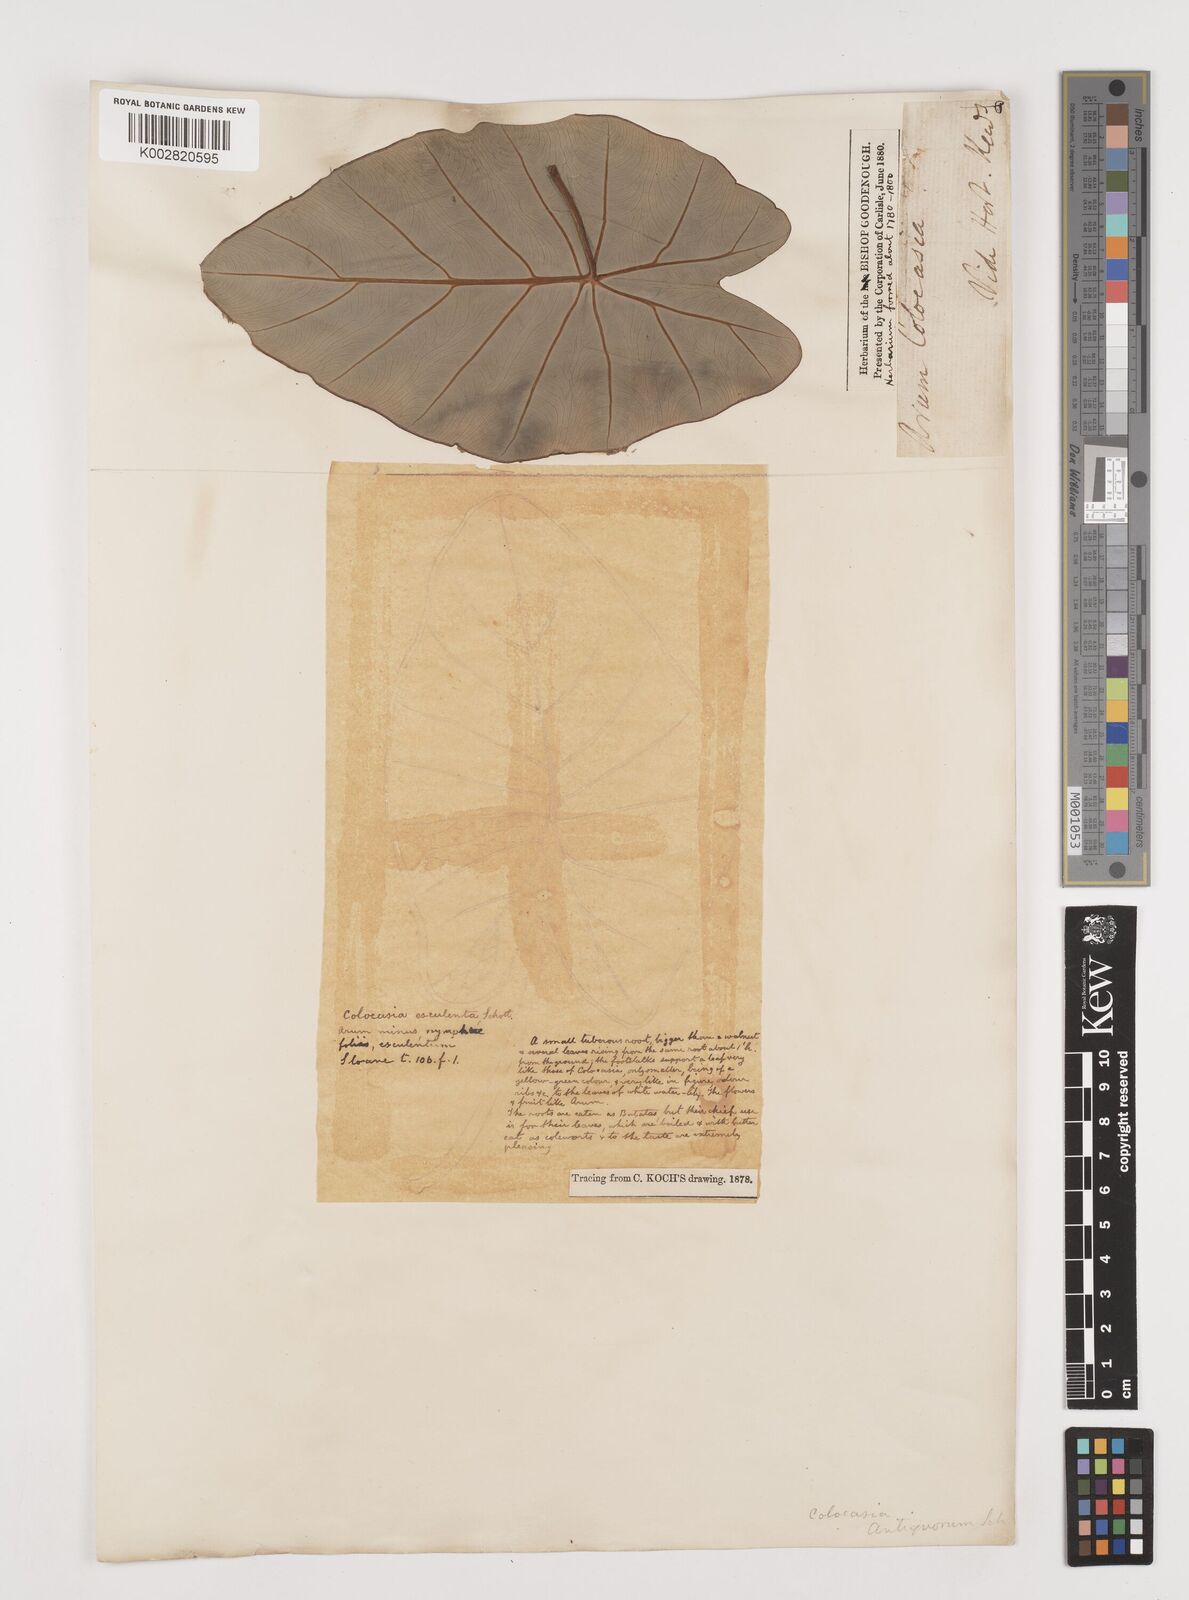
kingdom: Plantae
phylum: Tracheophyta
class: Liliopsida
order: Alismatales
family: Araceae
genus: Colocasia
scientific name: Colocasia esculenta
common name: Taro
